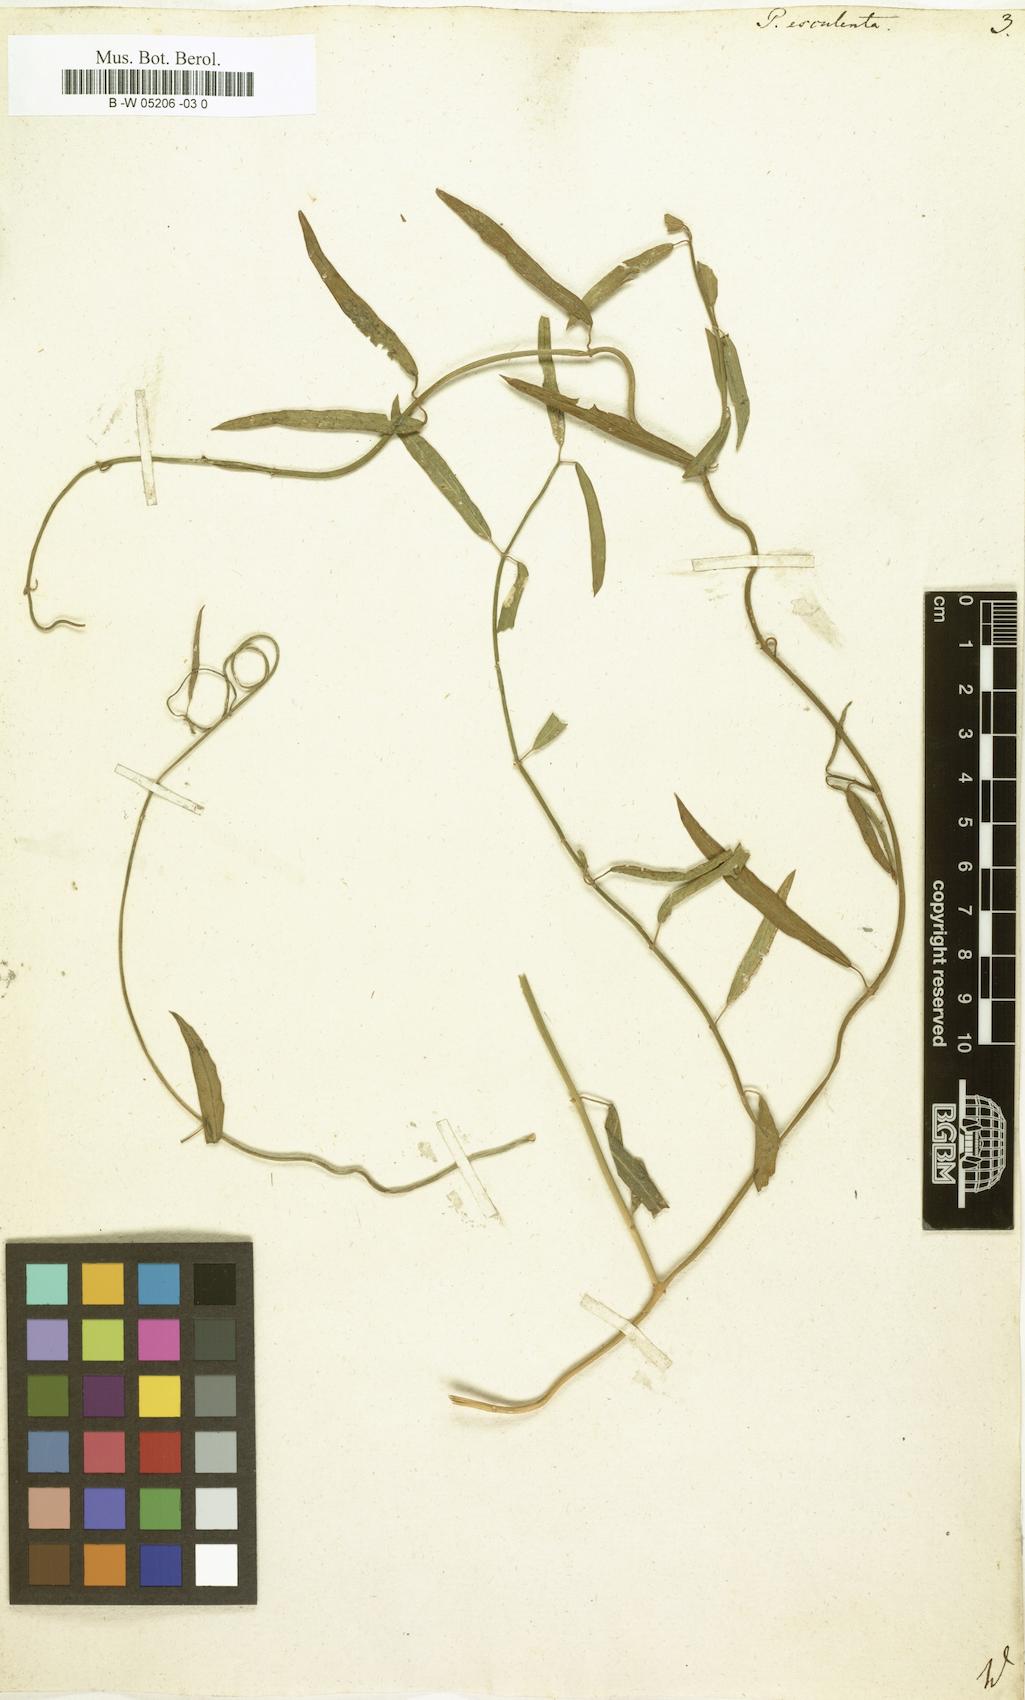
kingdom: Plantae
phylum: Tracheophyta
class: Magnoliopsida
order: Gentianales
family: Apocynaceae
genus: Oxystelma
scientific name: Oxystelma wallichii
